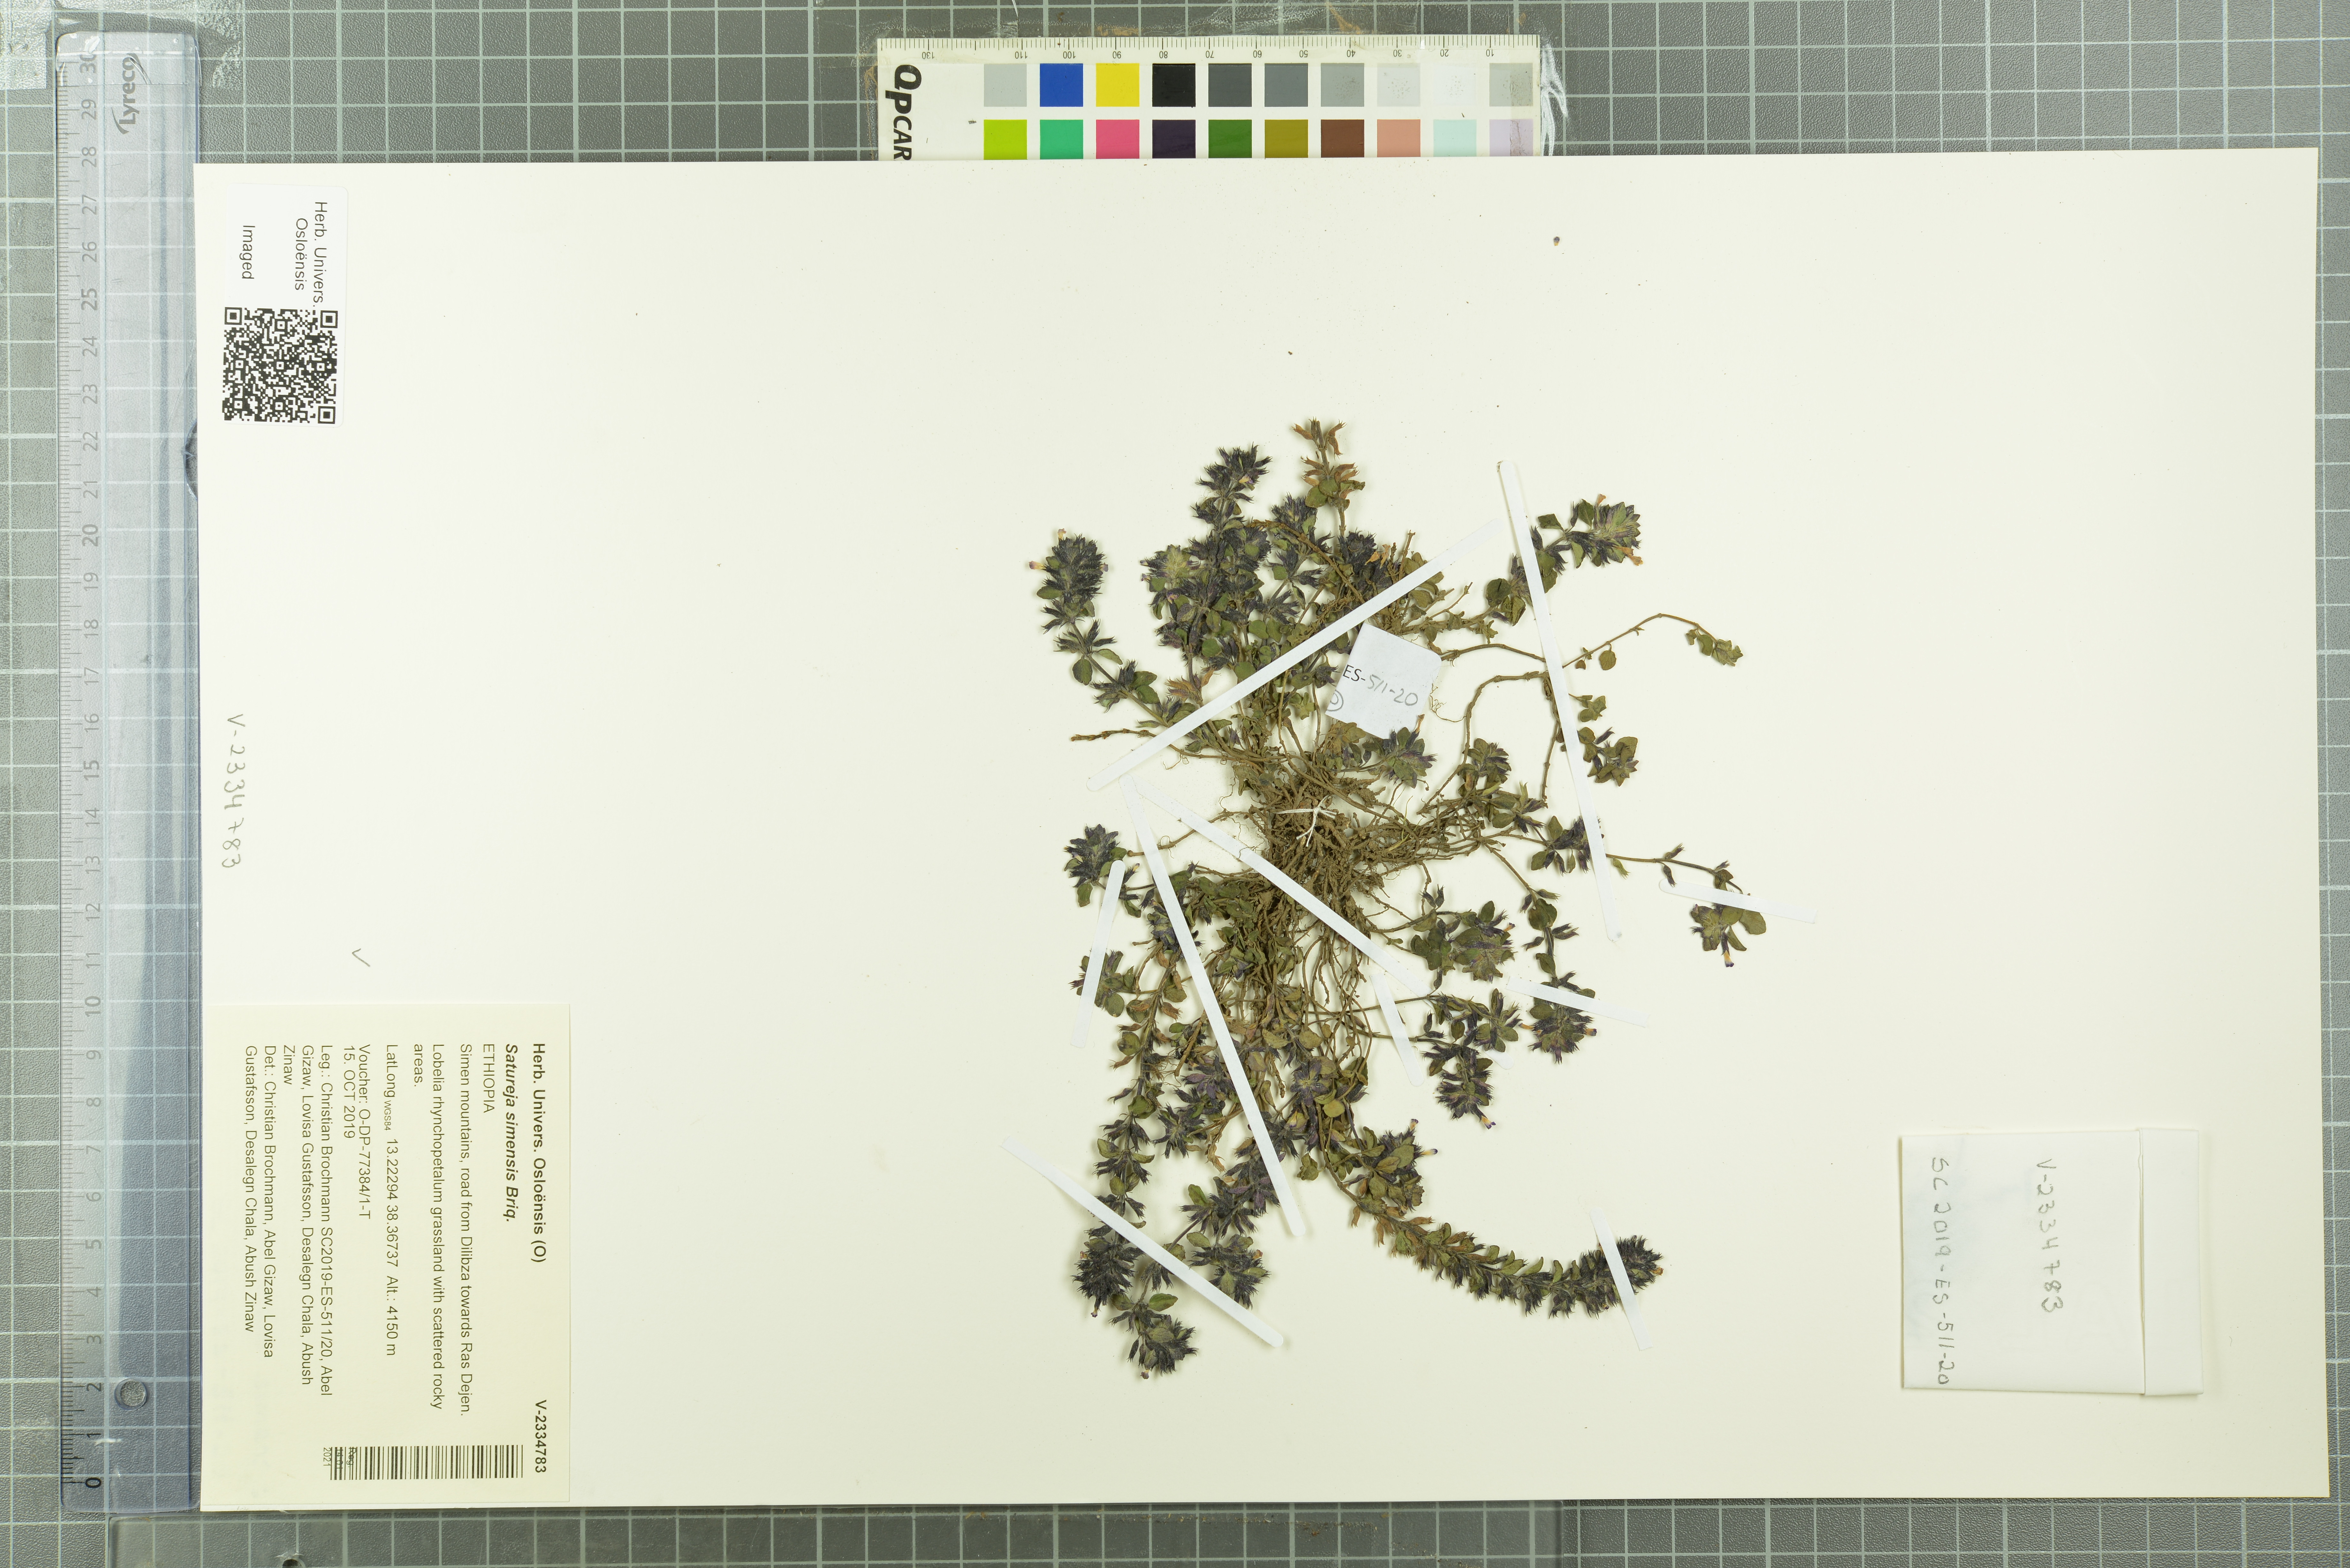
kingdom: Plantae
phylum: Tracheophyta
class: Magnoliopsida
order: Lamiales
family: Lamiaceae
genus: Clinopodium
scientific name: Clinopodium simense
